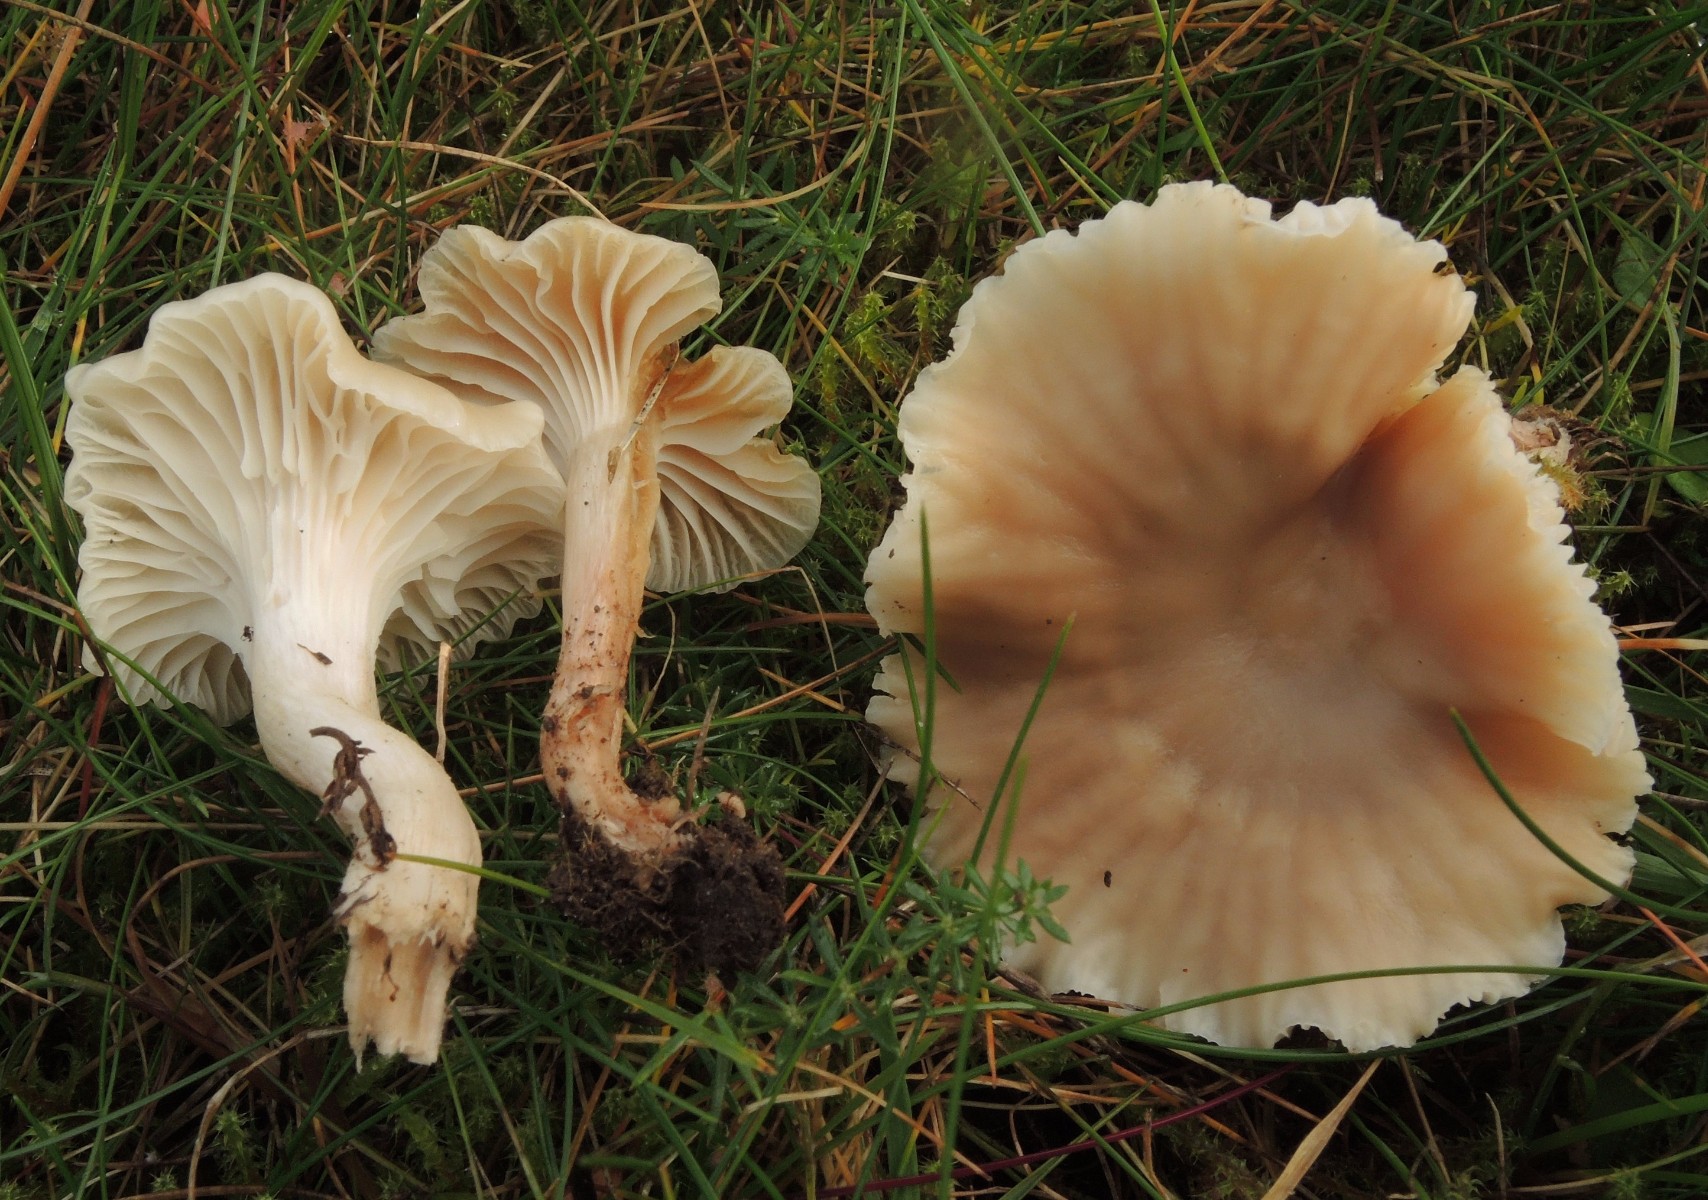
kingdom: Fungi
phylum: Basidiomycota
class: Agaricomycetes
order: Agaricales
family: Hygrophoraceae
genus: Cuphophyllus
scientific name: Cuphophyllus virgineus
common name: isabella-vokshat
